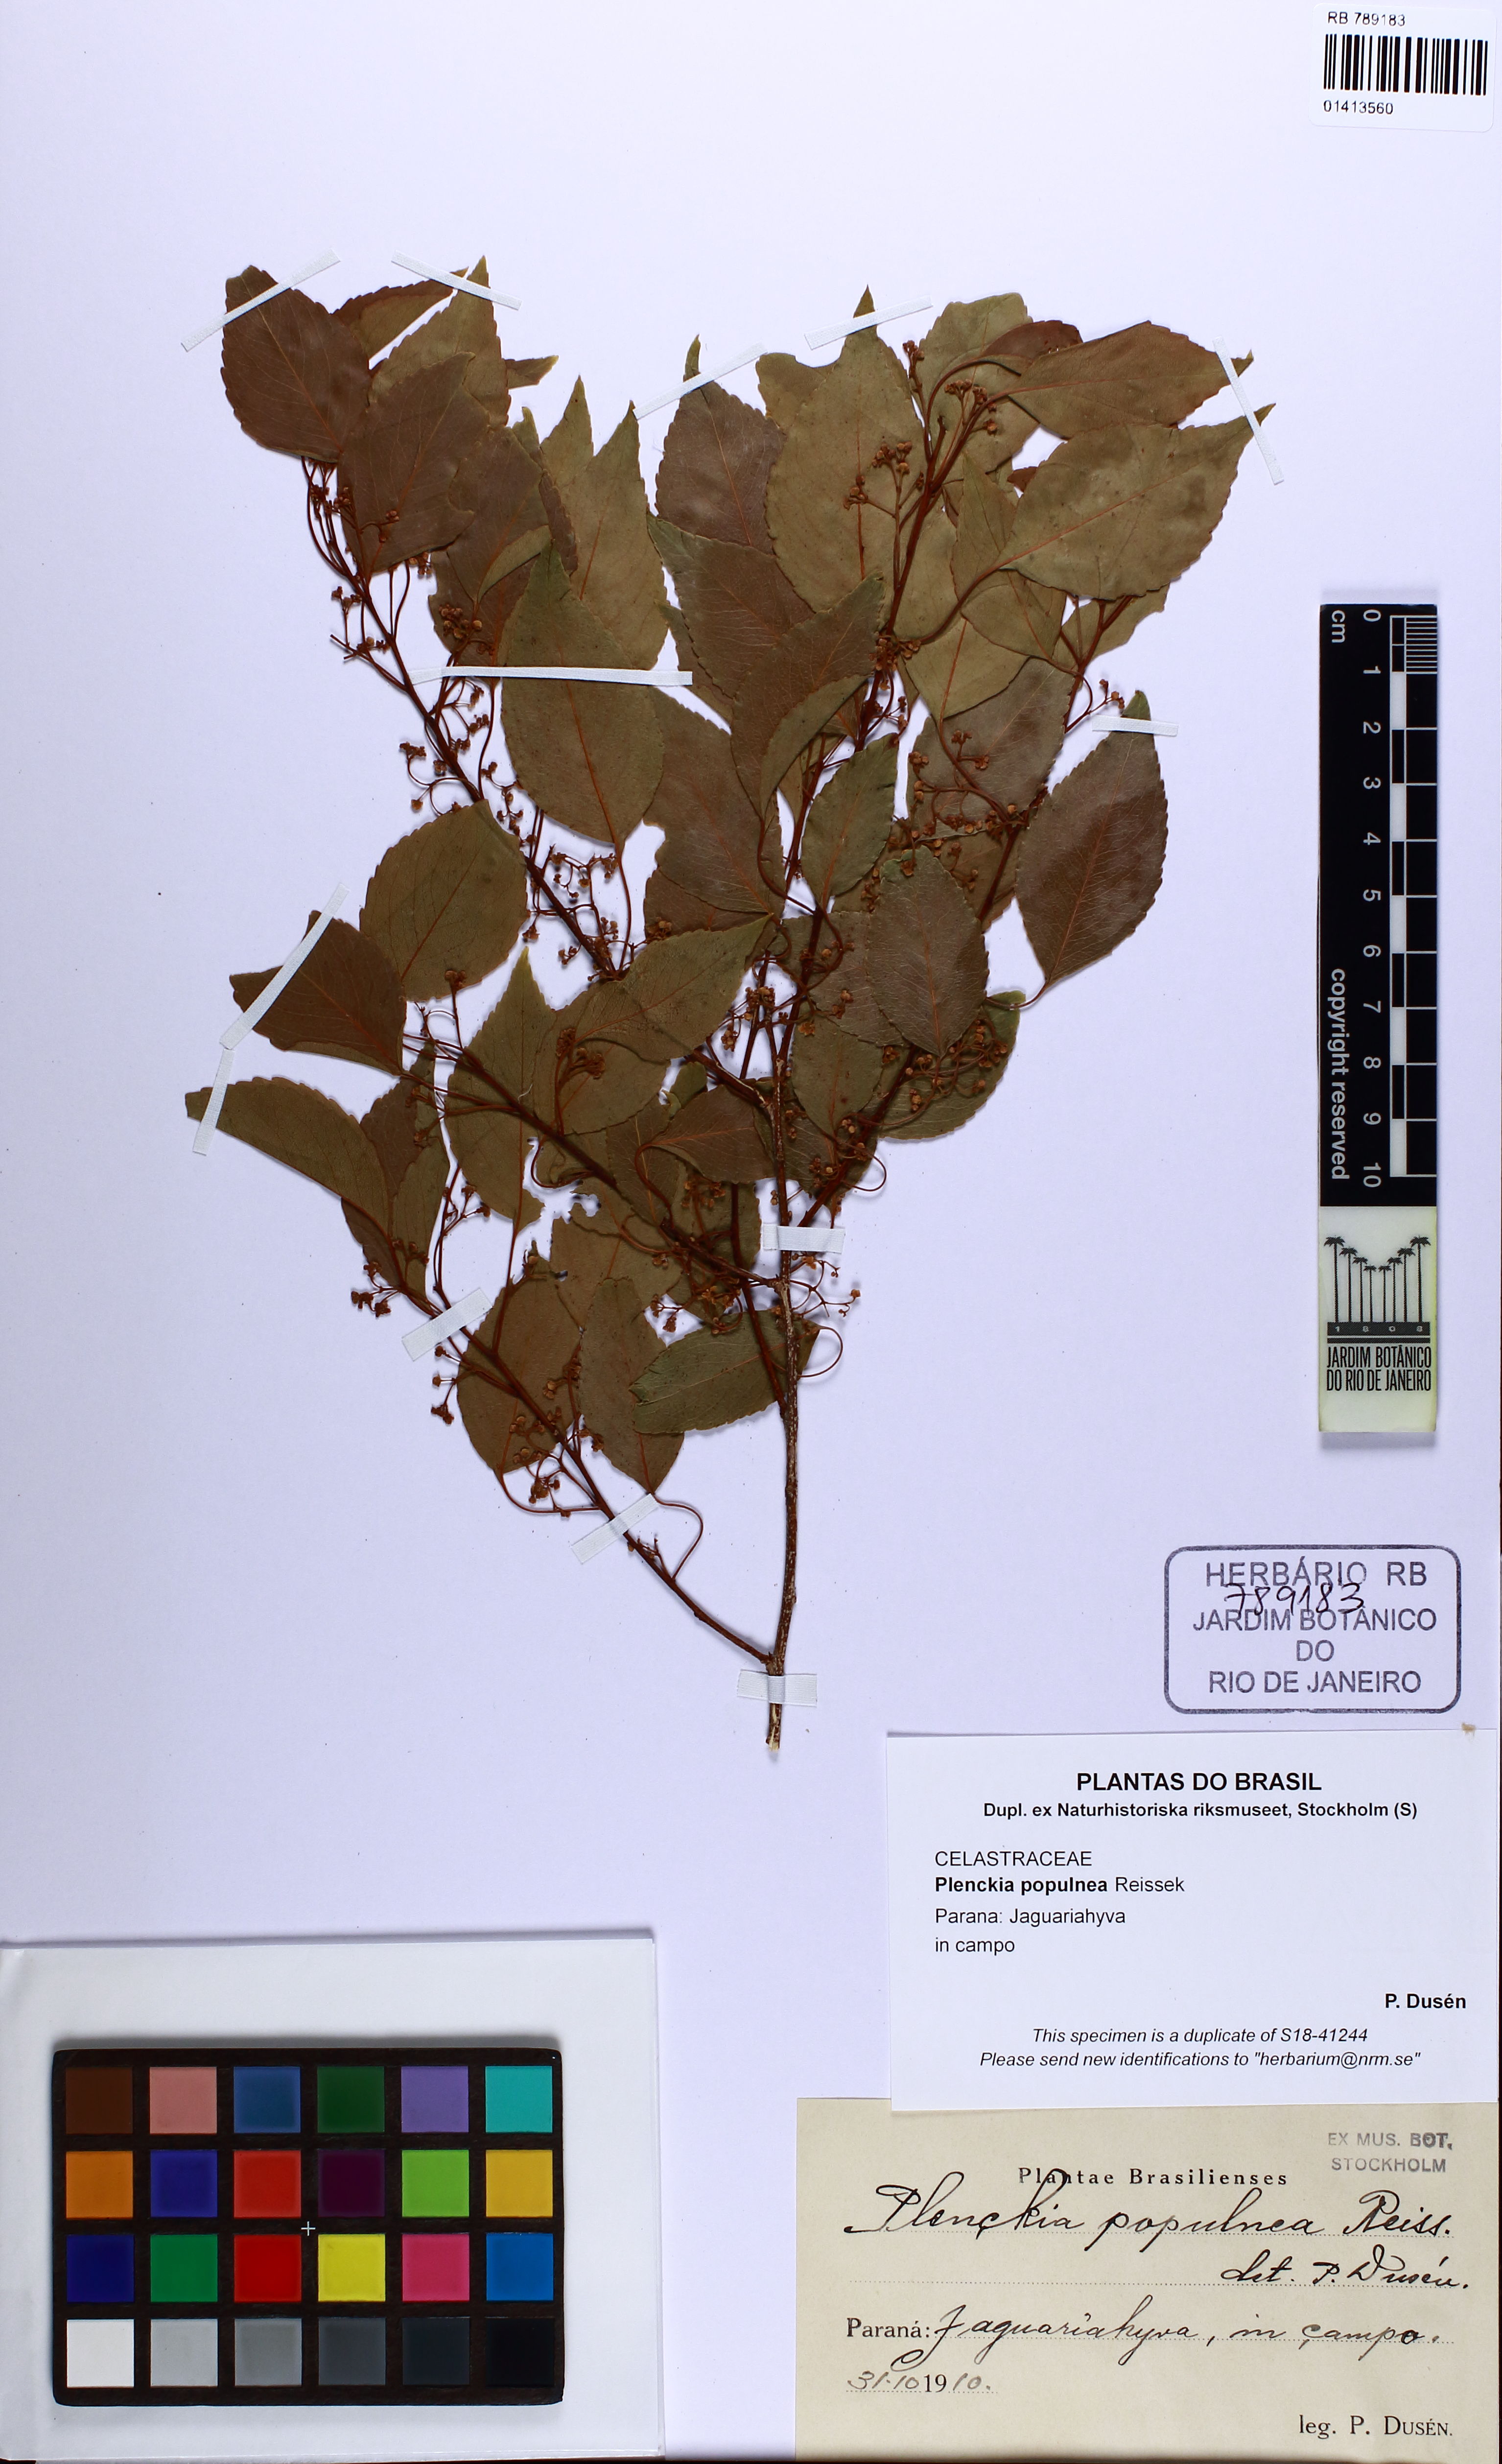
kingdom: Plantae
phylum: Tracheophyta
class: Magnoliopsida
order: Celastrales
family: Celastraceae
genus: Plenckia
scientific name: Plenckia populnea
